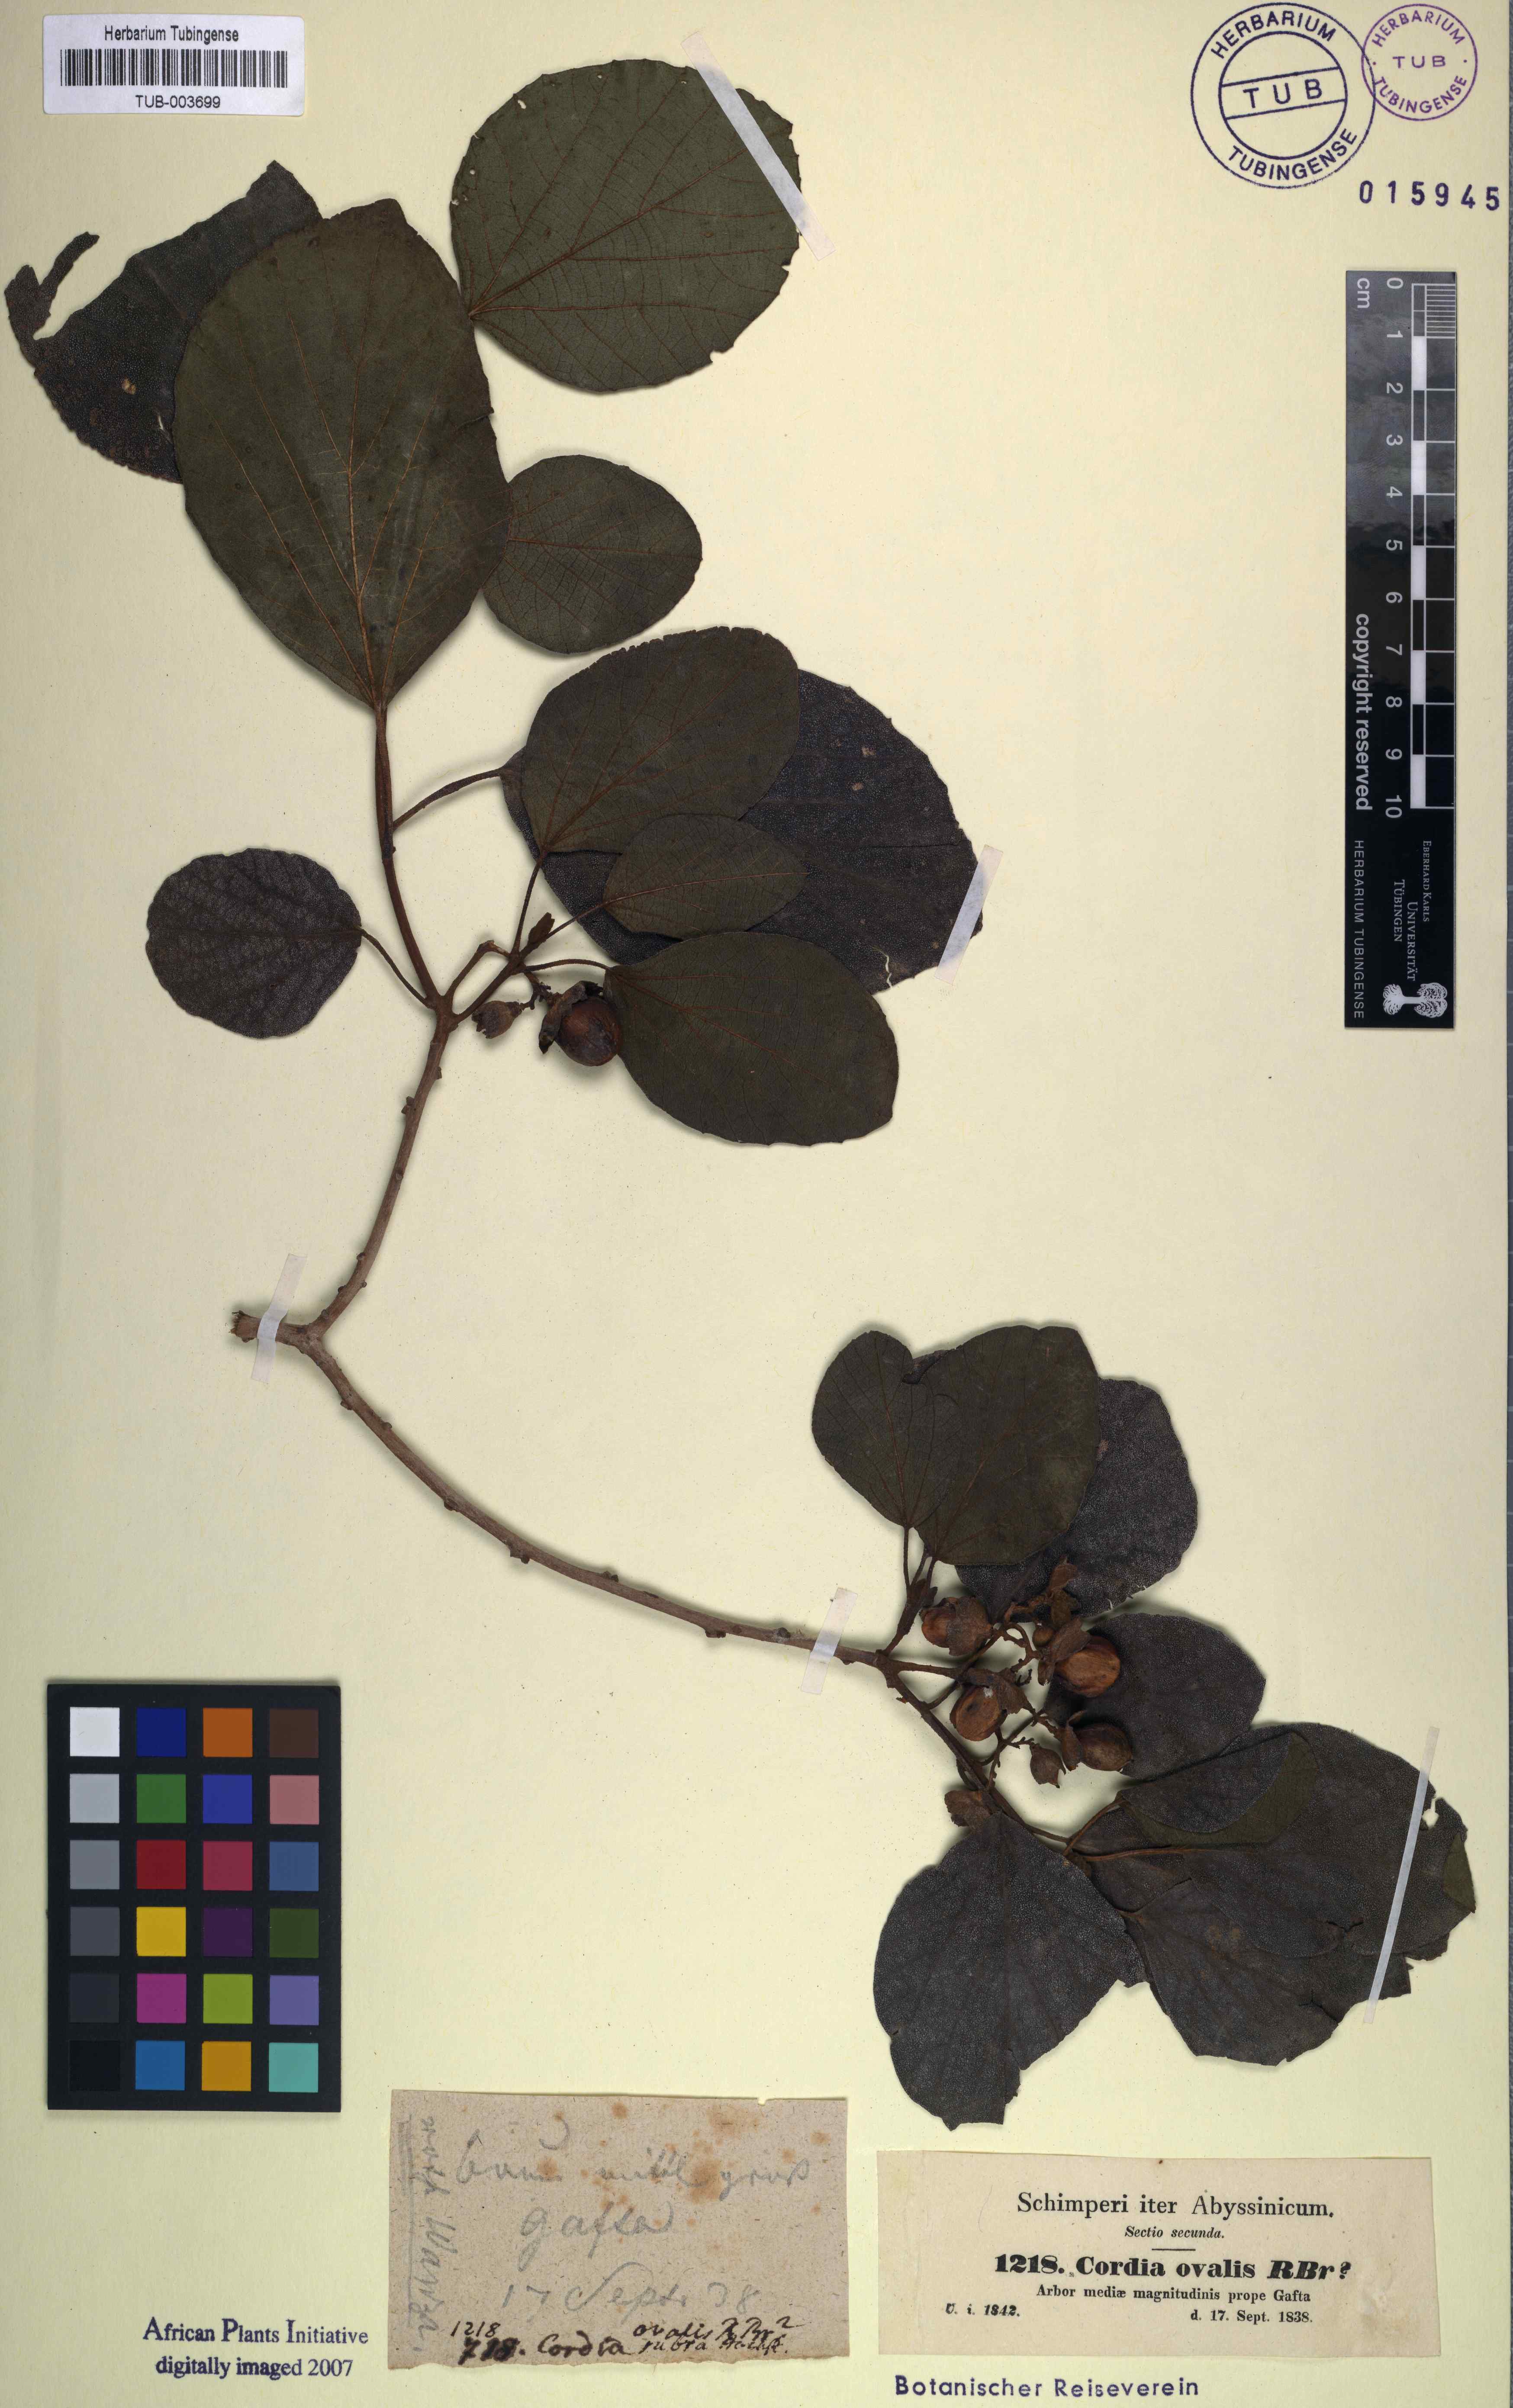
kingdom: Plantae
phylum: Tracheophyta
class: Magnoliopsida
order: Boraginales
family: Cordiaceae
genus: Cordia
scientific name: Cordia monoica
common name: Snot berry
